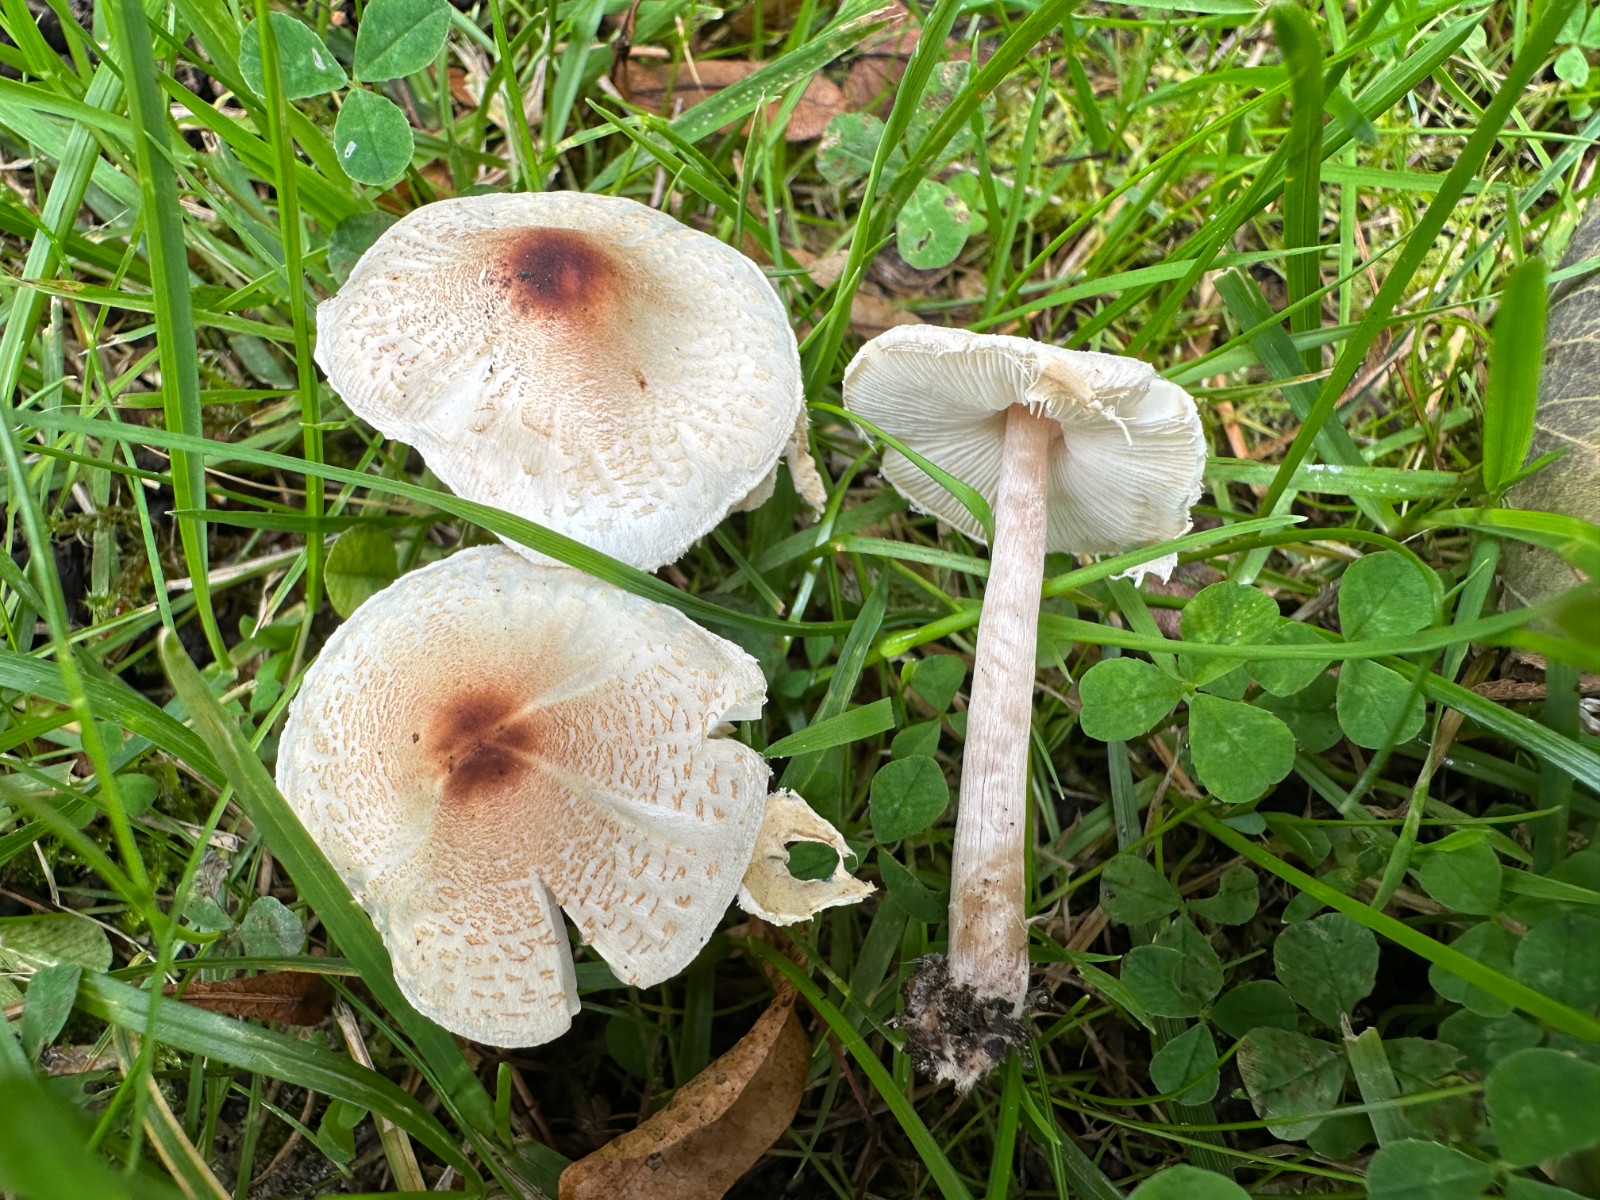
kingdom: Fungi
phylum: Basidiomycota
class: Agaricomycetes
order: Agaricales
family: Agaricaceae
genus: Lepiota
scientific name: Lepiota cristata
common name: stinkende parasolhat
